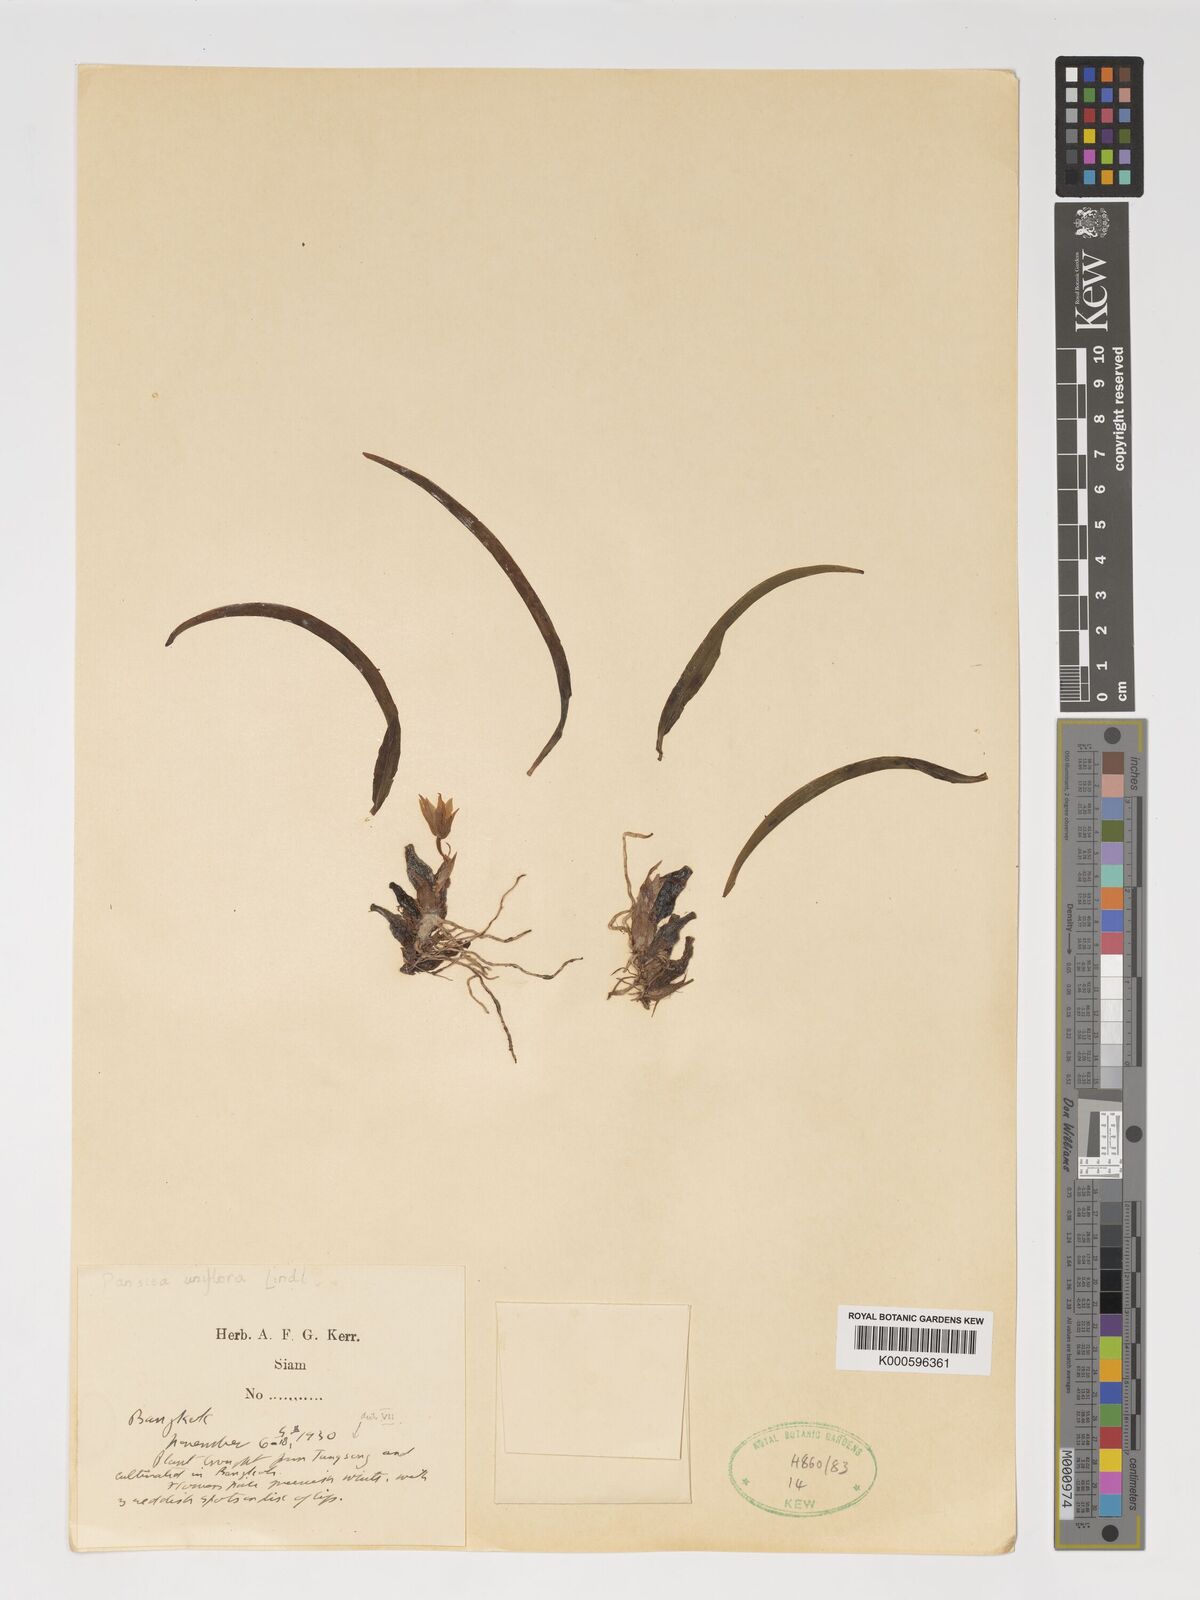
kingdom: Plantae
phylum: Tracheophyta
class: Liliopsida
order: Asparagales
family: Orchidaceae
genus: Coelogyne
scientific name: Coelogyne uniflora
